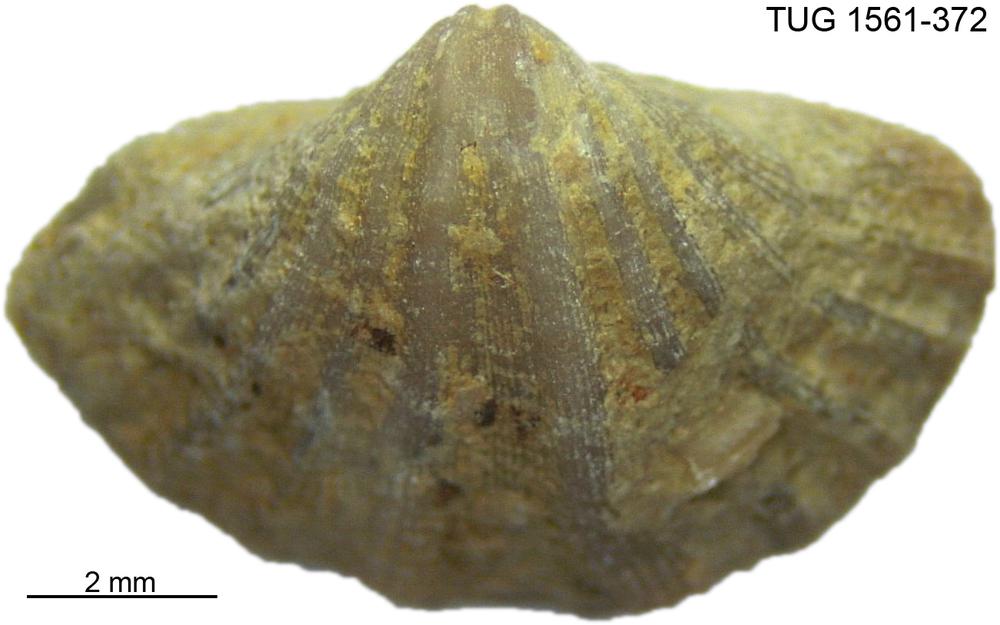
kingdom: Animalia
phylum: Arthropoda
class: Copepoda
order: Cyclopoida
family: Notodelphyidae
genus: Janhius
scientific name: Janhius Spirifer barrandi
